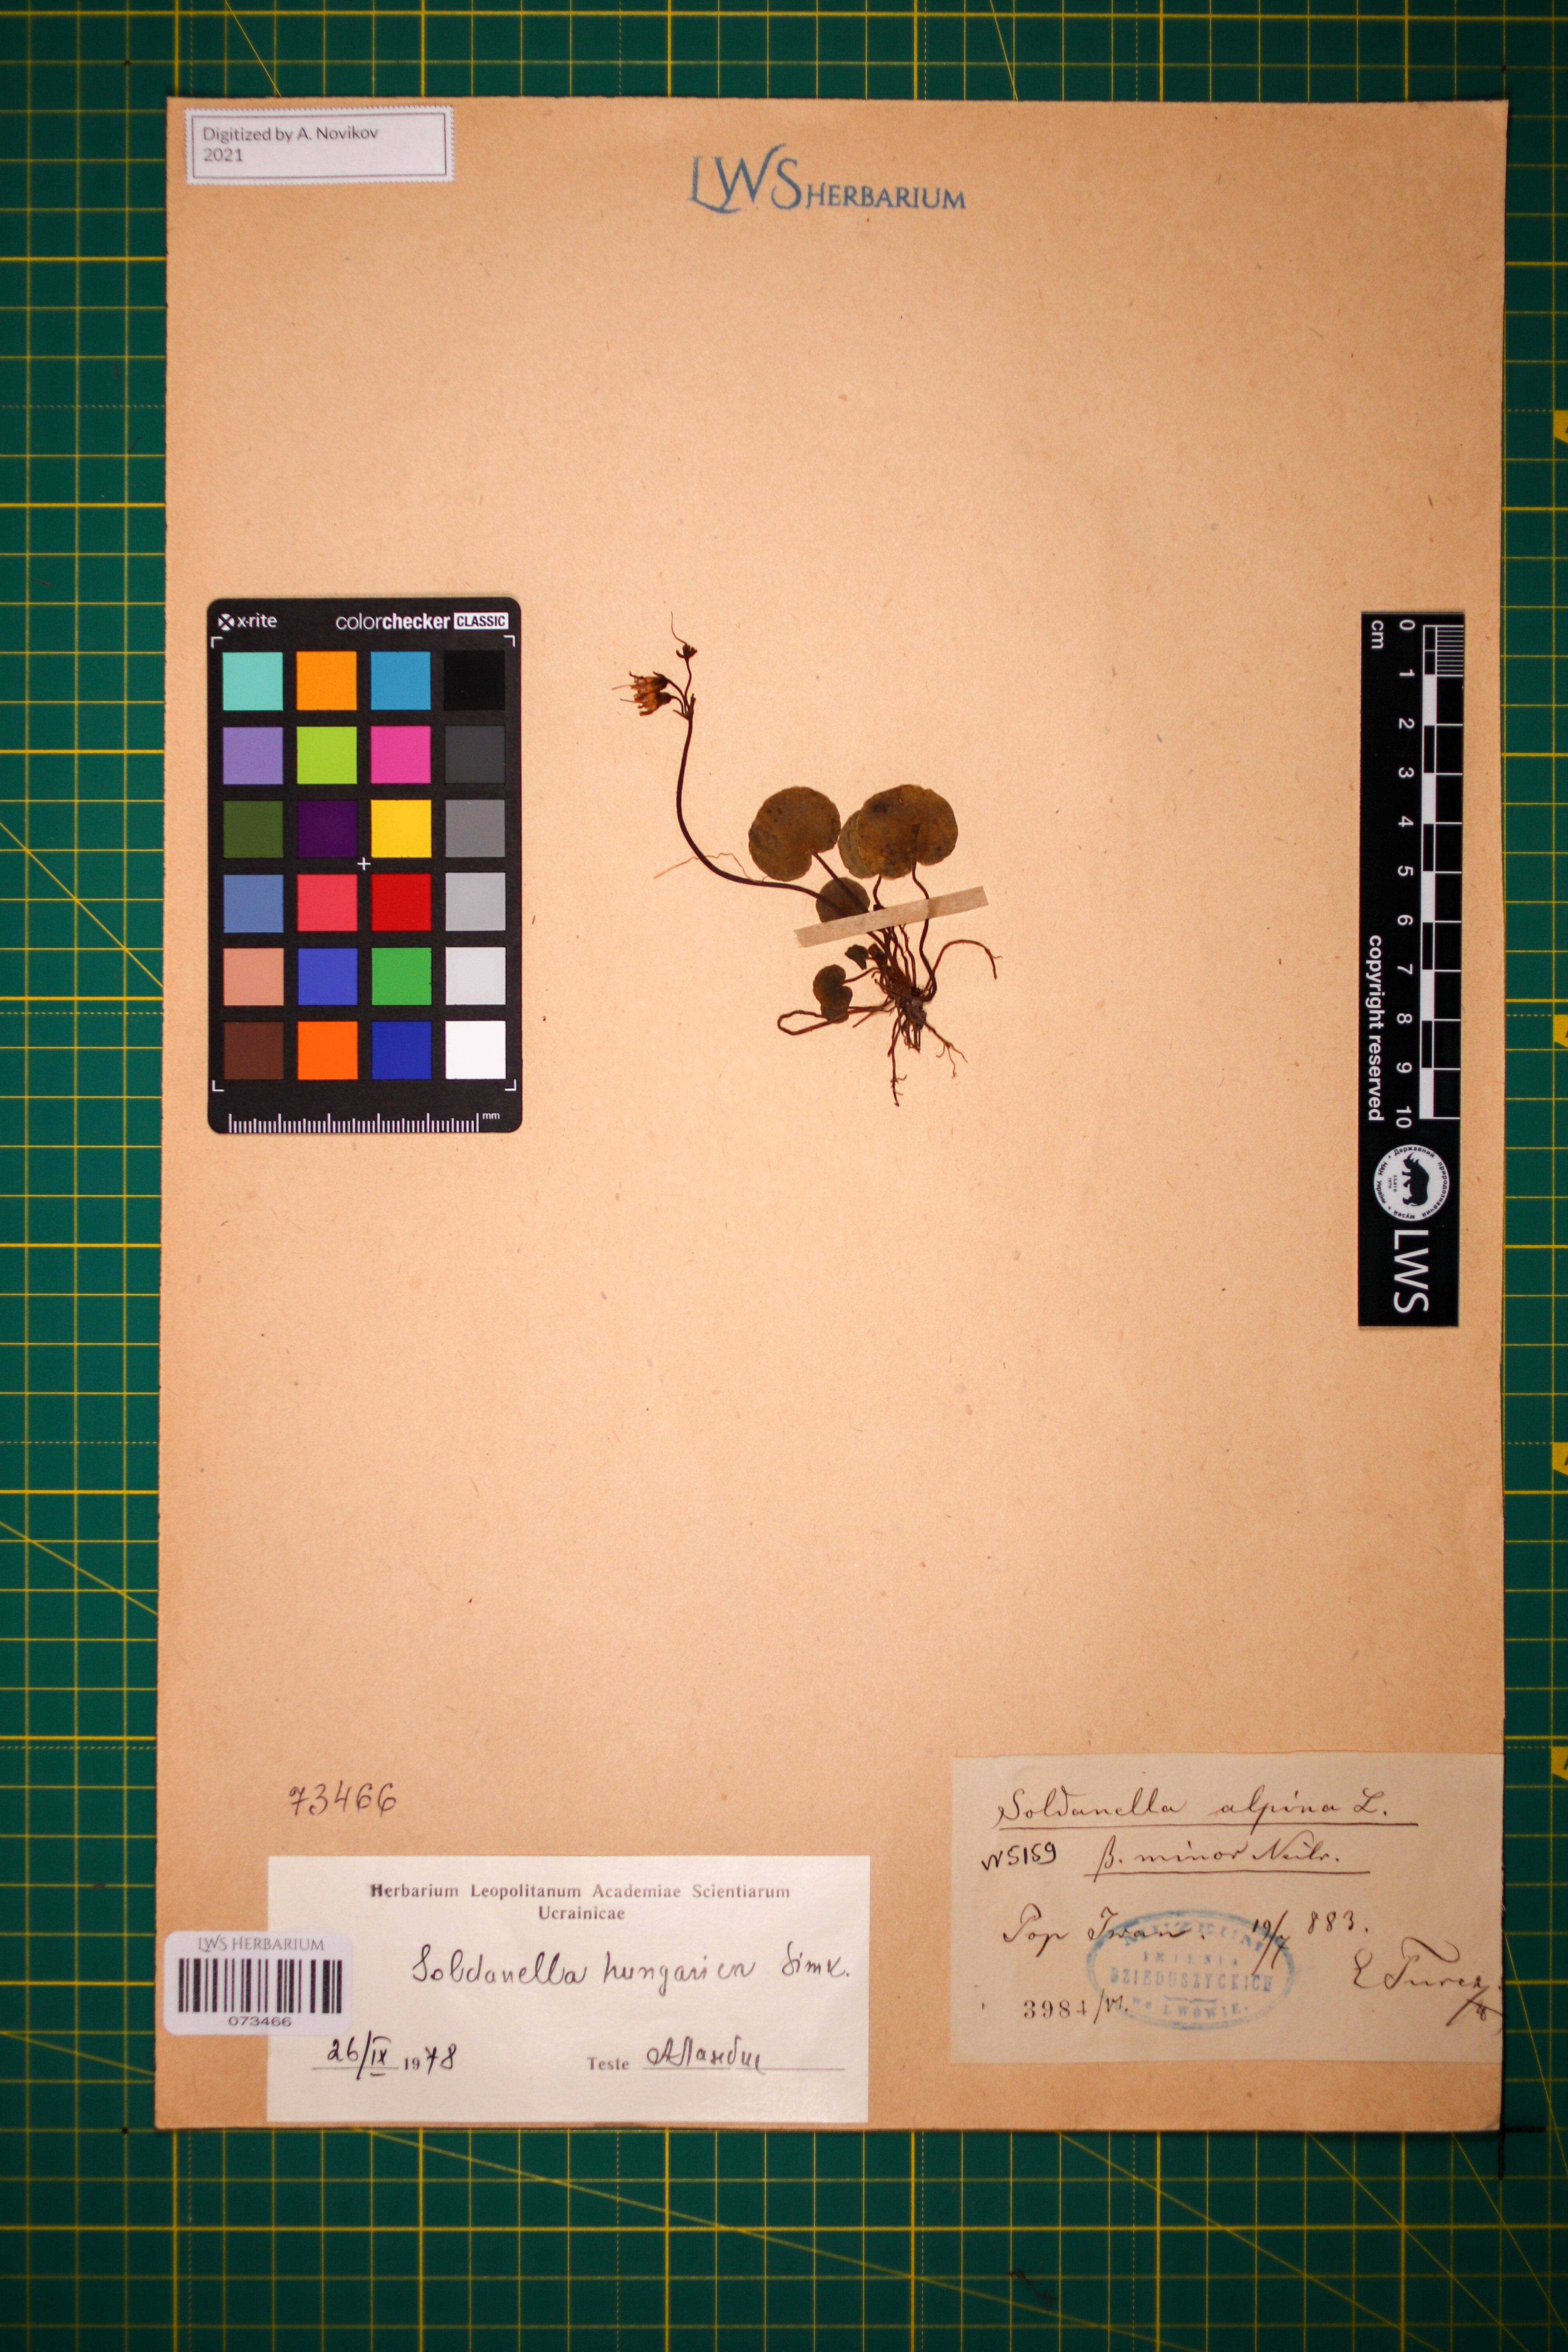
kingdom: Plantae
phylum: Tracheophyta
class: Magnoliopsida
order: Ericales
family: Primulaceae
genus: Soldanella
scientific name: Soldanella hungarica
